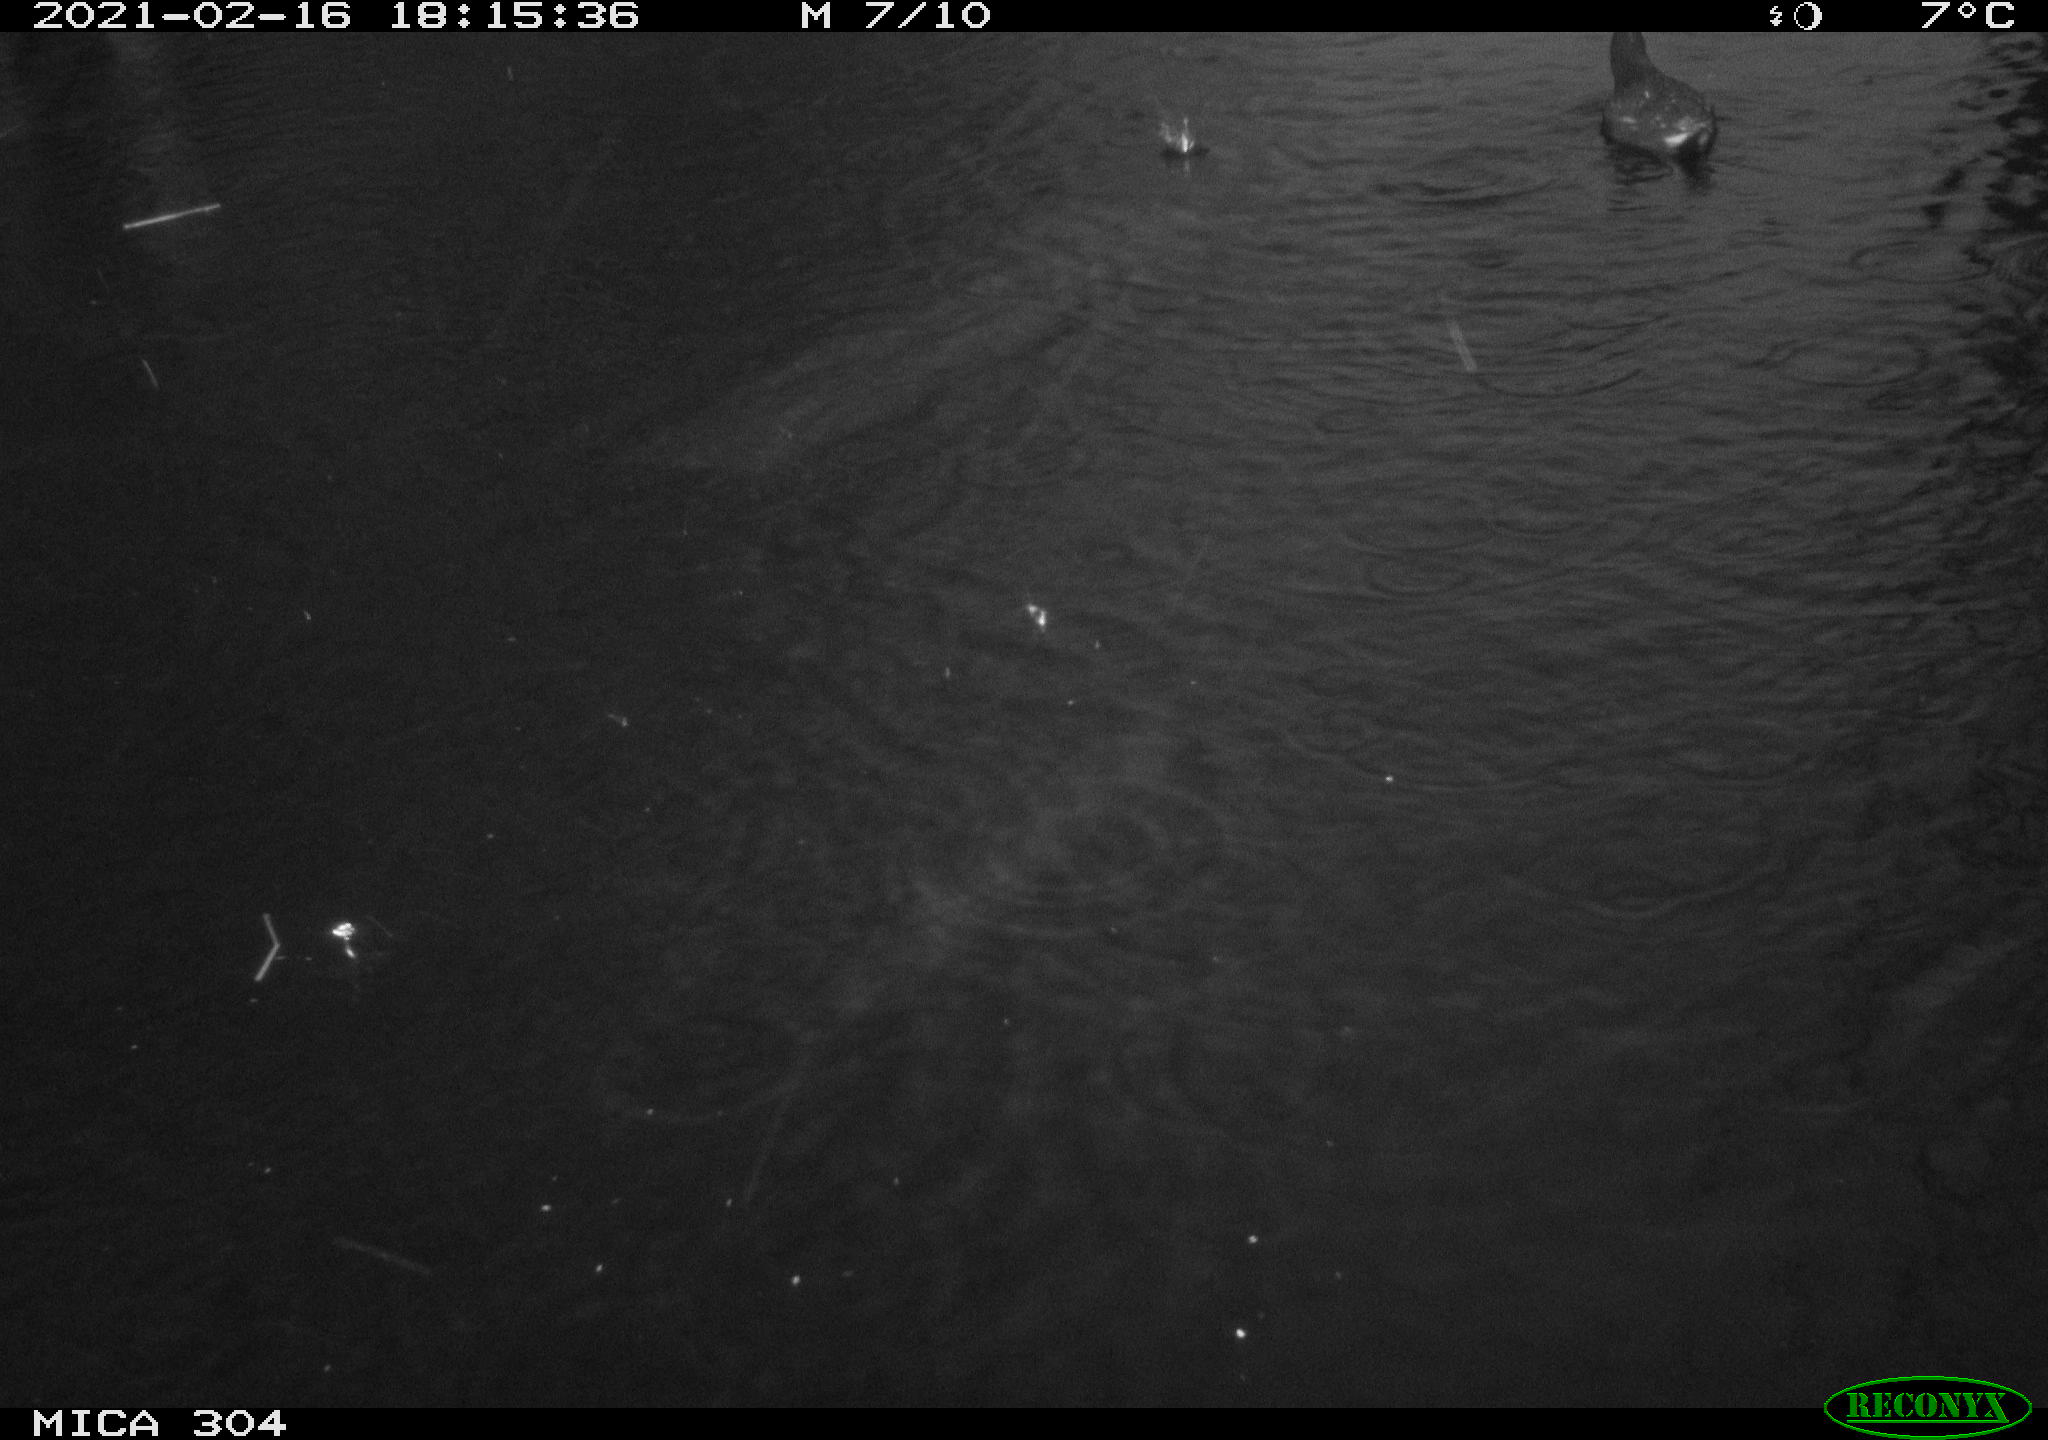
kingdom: Animalia
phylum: Chordata
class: Aves
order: Gruiformes
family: Rallidae
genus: Gallinula
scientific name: Gallinula chloropus
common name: Common moorhen
